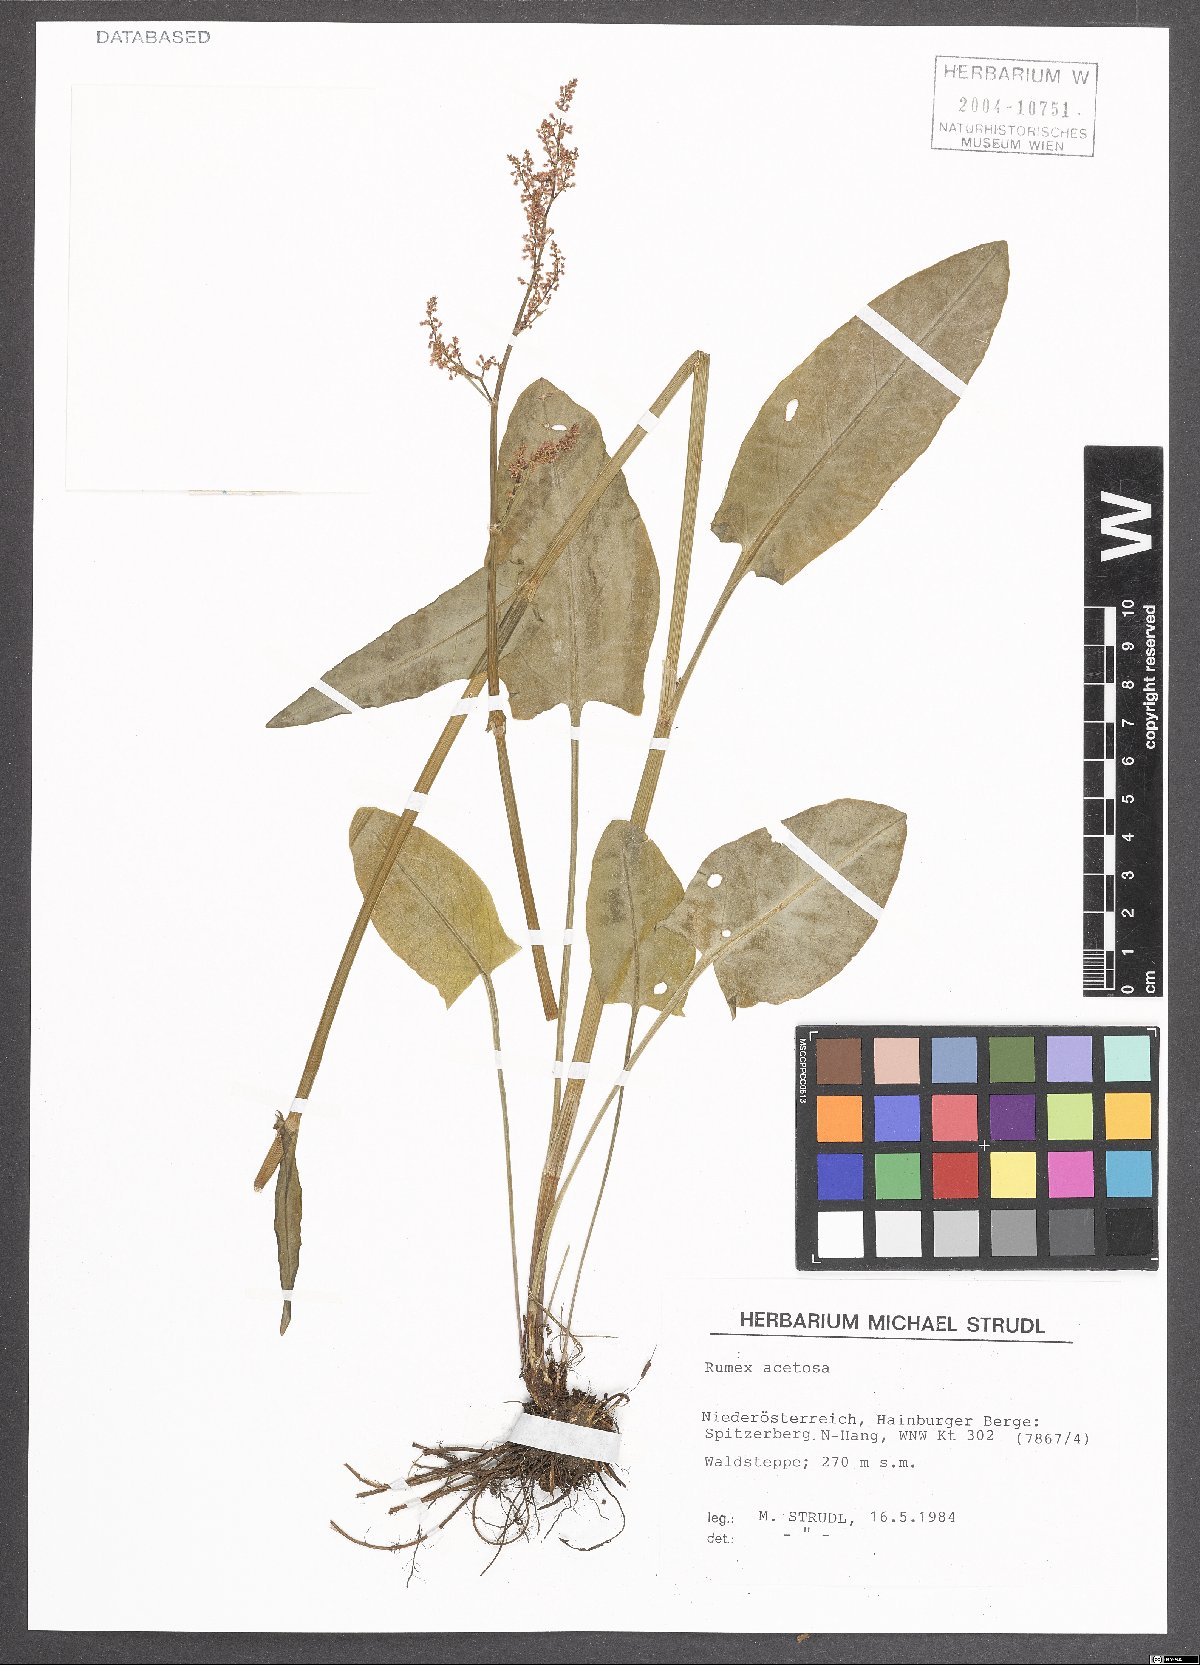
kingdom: Plantae
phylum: Tracheophyta
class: Magnoliopsida
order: Caryophyllales
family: Polygonaceae
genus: Rumex
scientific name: Rumex acetosa
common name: Garden sorrel
